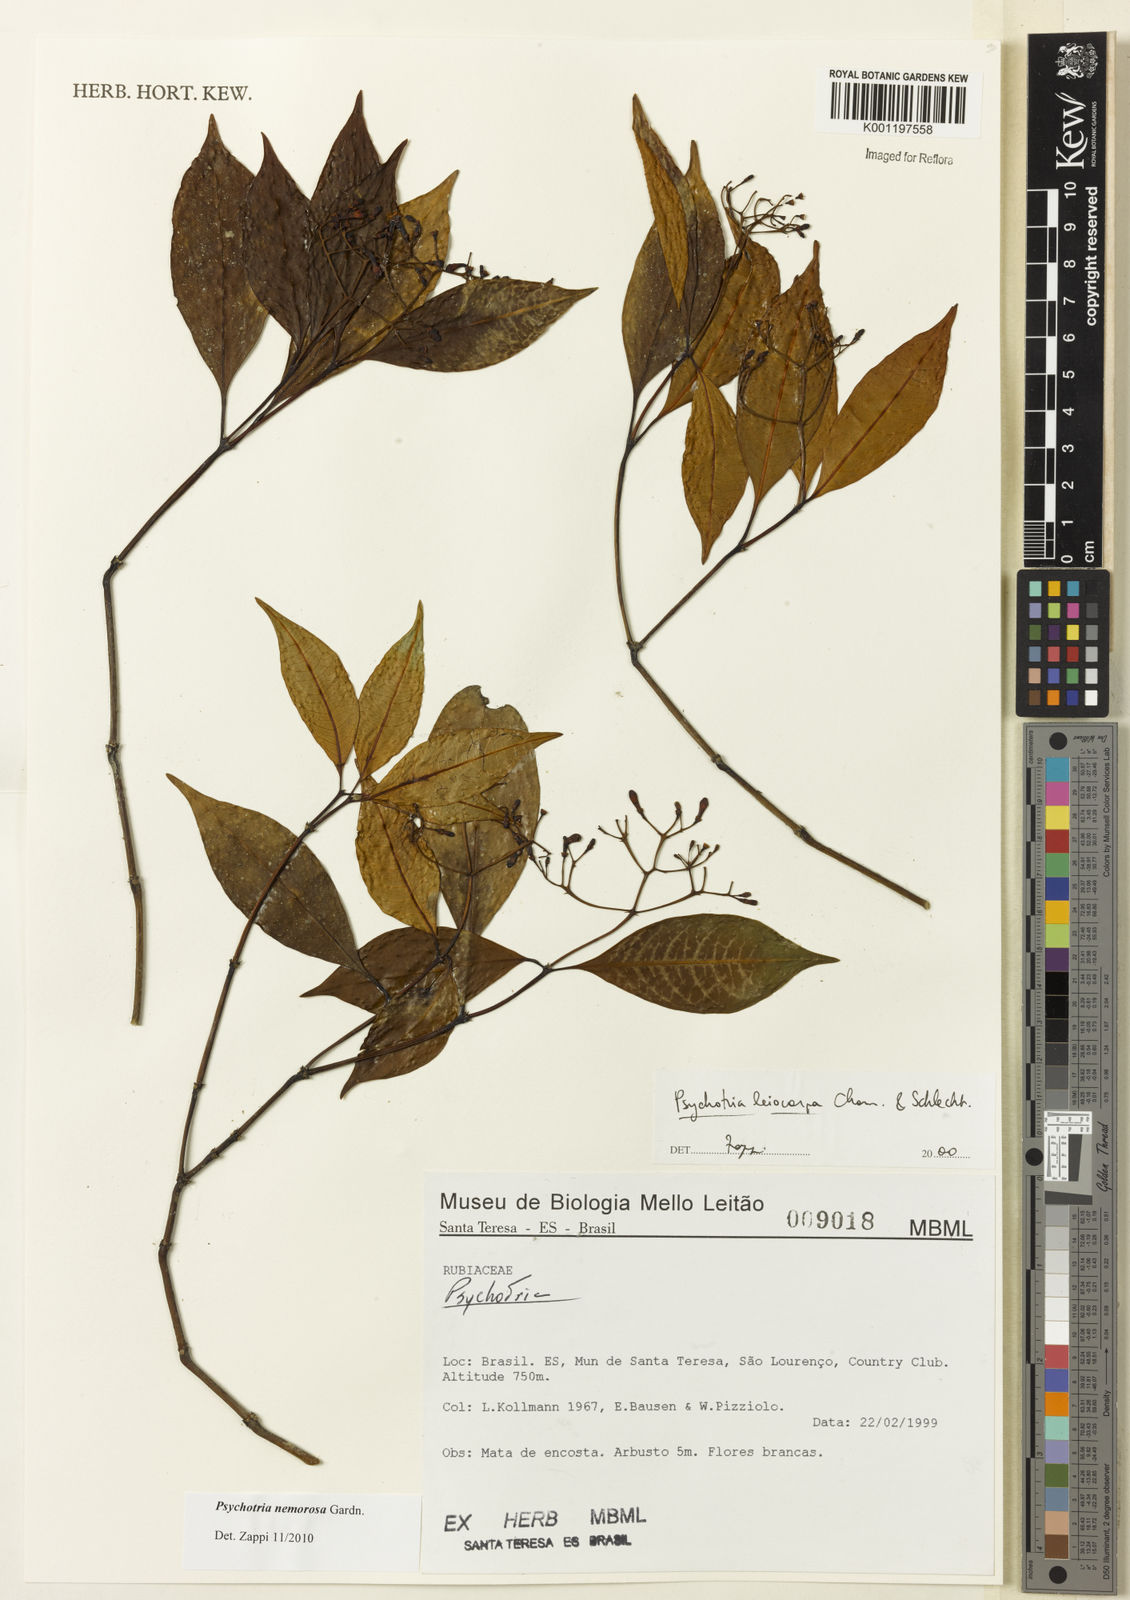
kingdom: Plantae
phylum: Tracheophyta
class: Magnoliopsida
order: Gentianales
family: Rubiaceae
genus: Psychotria
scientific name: Psychotria nemorosa
